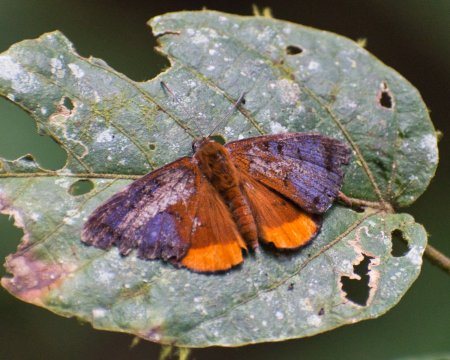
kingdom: Animalia
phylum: Arthropoda
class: Insecta
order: Lepidoptera
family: Riodinidae
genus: Hypophylla
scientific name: Hypophylla martia
